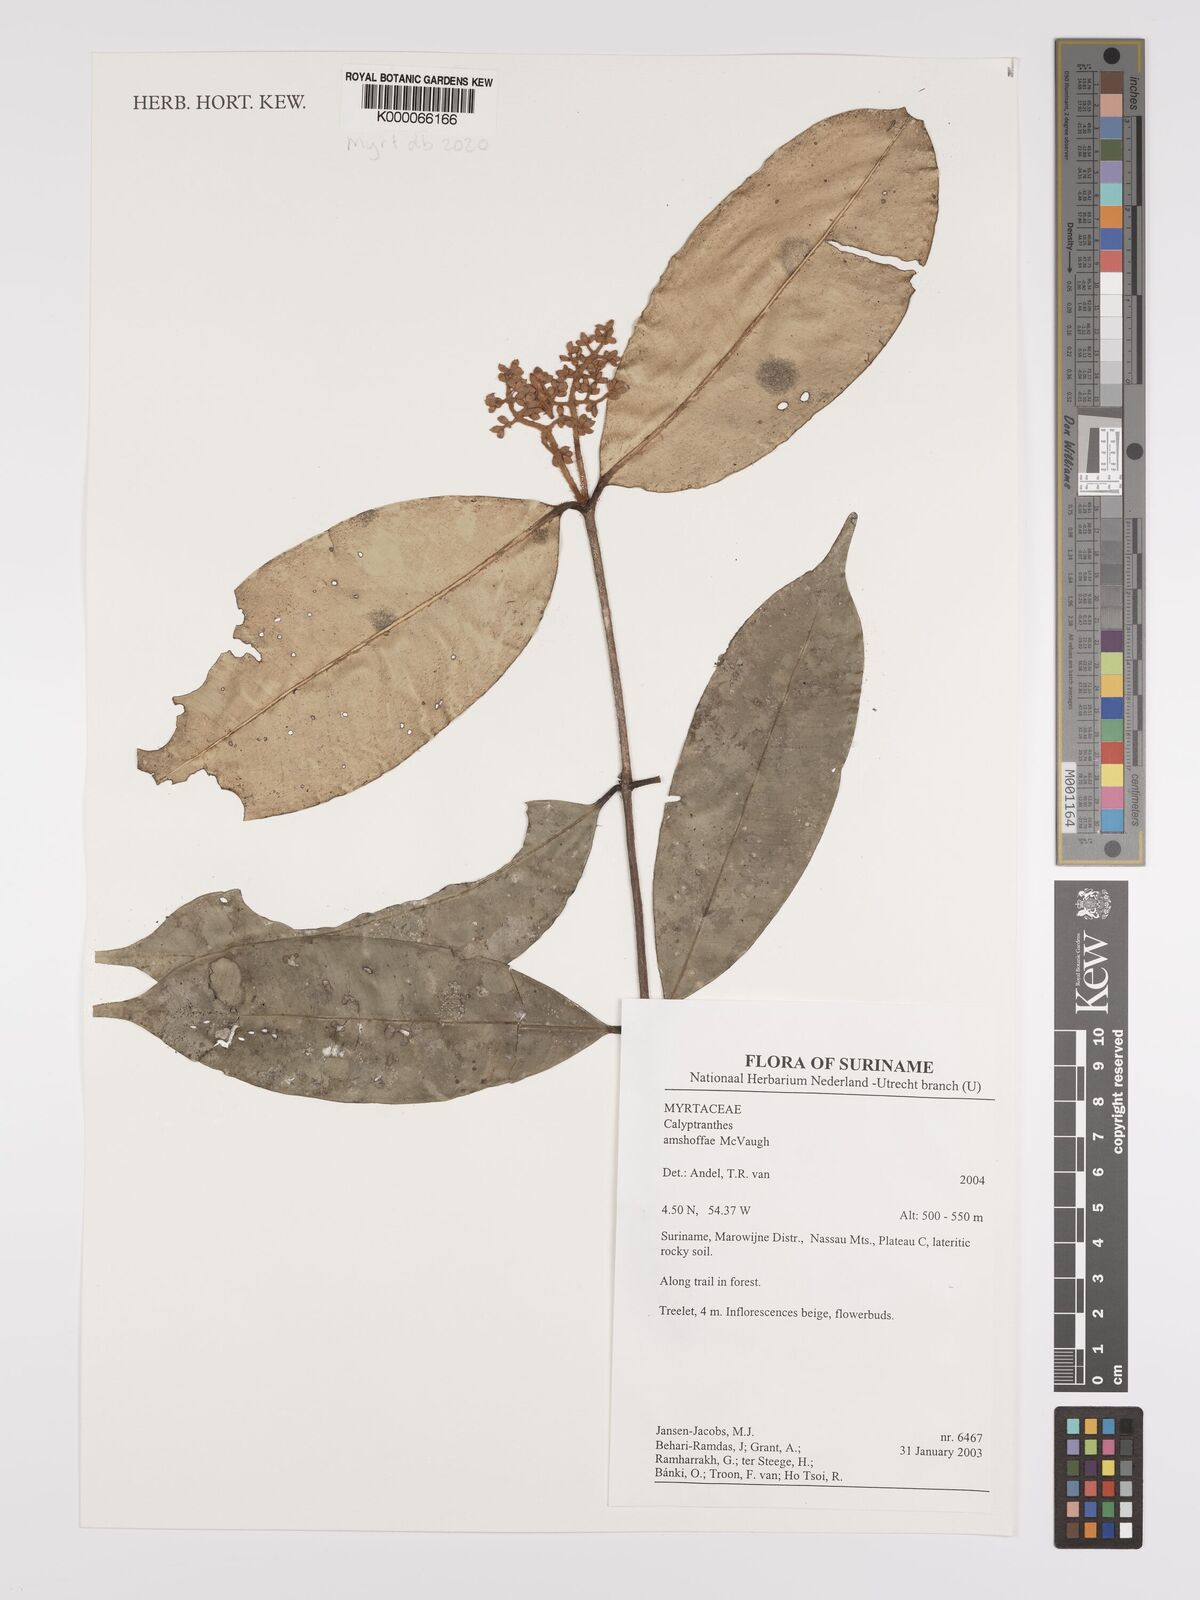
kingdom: Plantae
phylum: Tracheophyta
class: Magnoliopsida
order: Myrtales
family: Myrtaceae
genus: Myrcia
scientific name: Myrcia amshoffae
